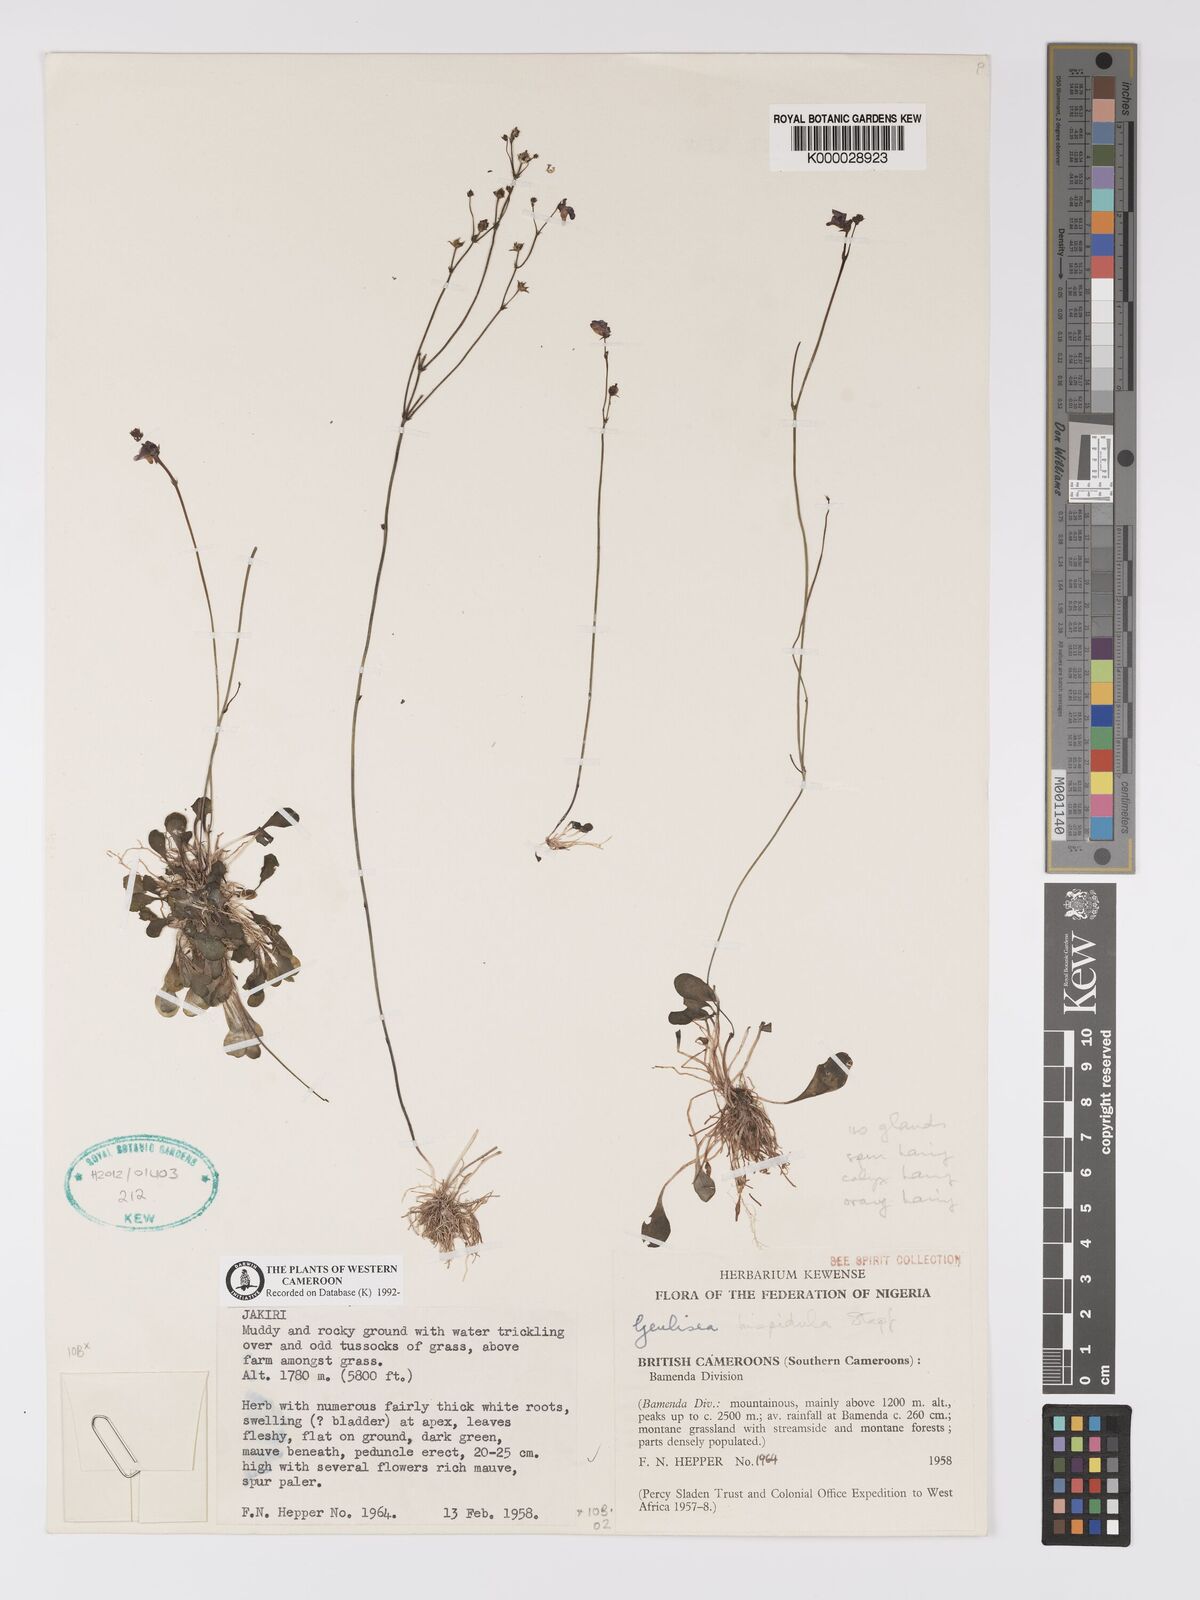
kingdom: Plantae
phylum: Tracheophyta
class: Magnoliopsida
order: Lamiales
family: Lentibulariaceae
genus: Genlisea
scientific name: Genlisea hispidula
